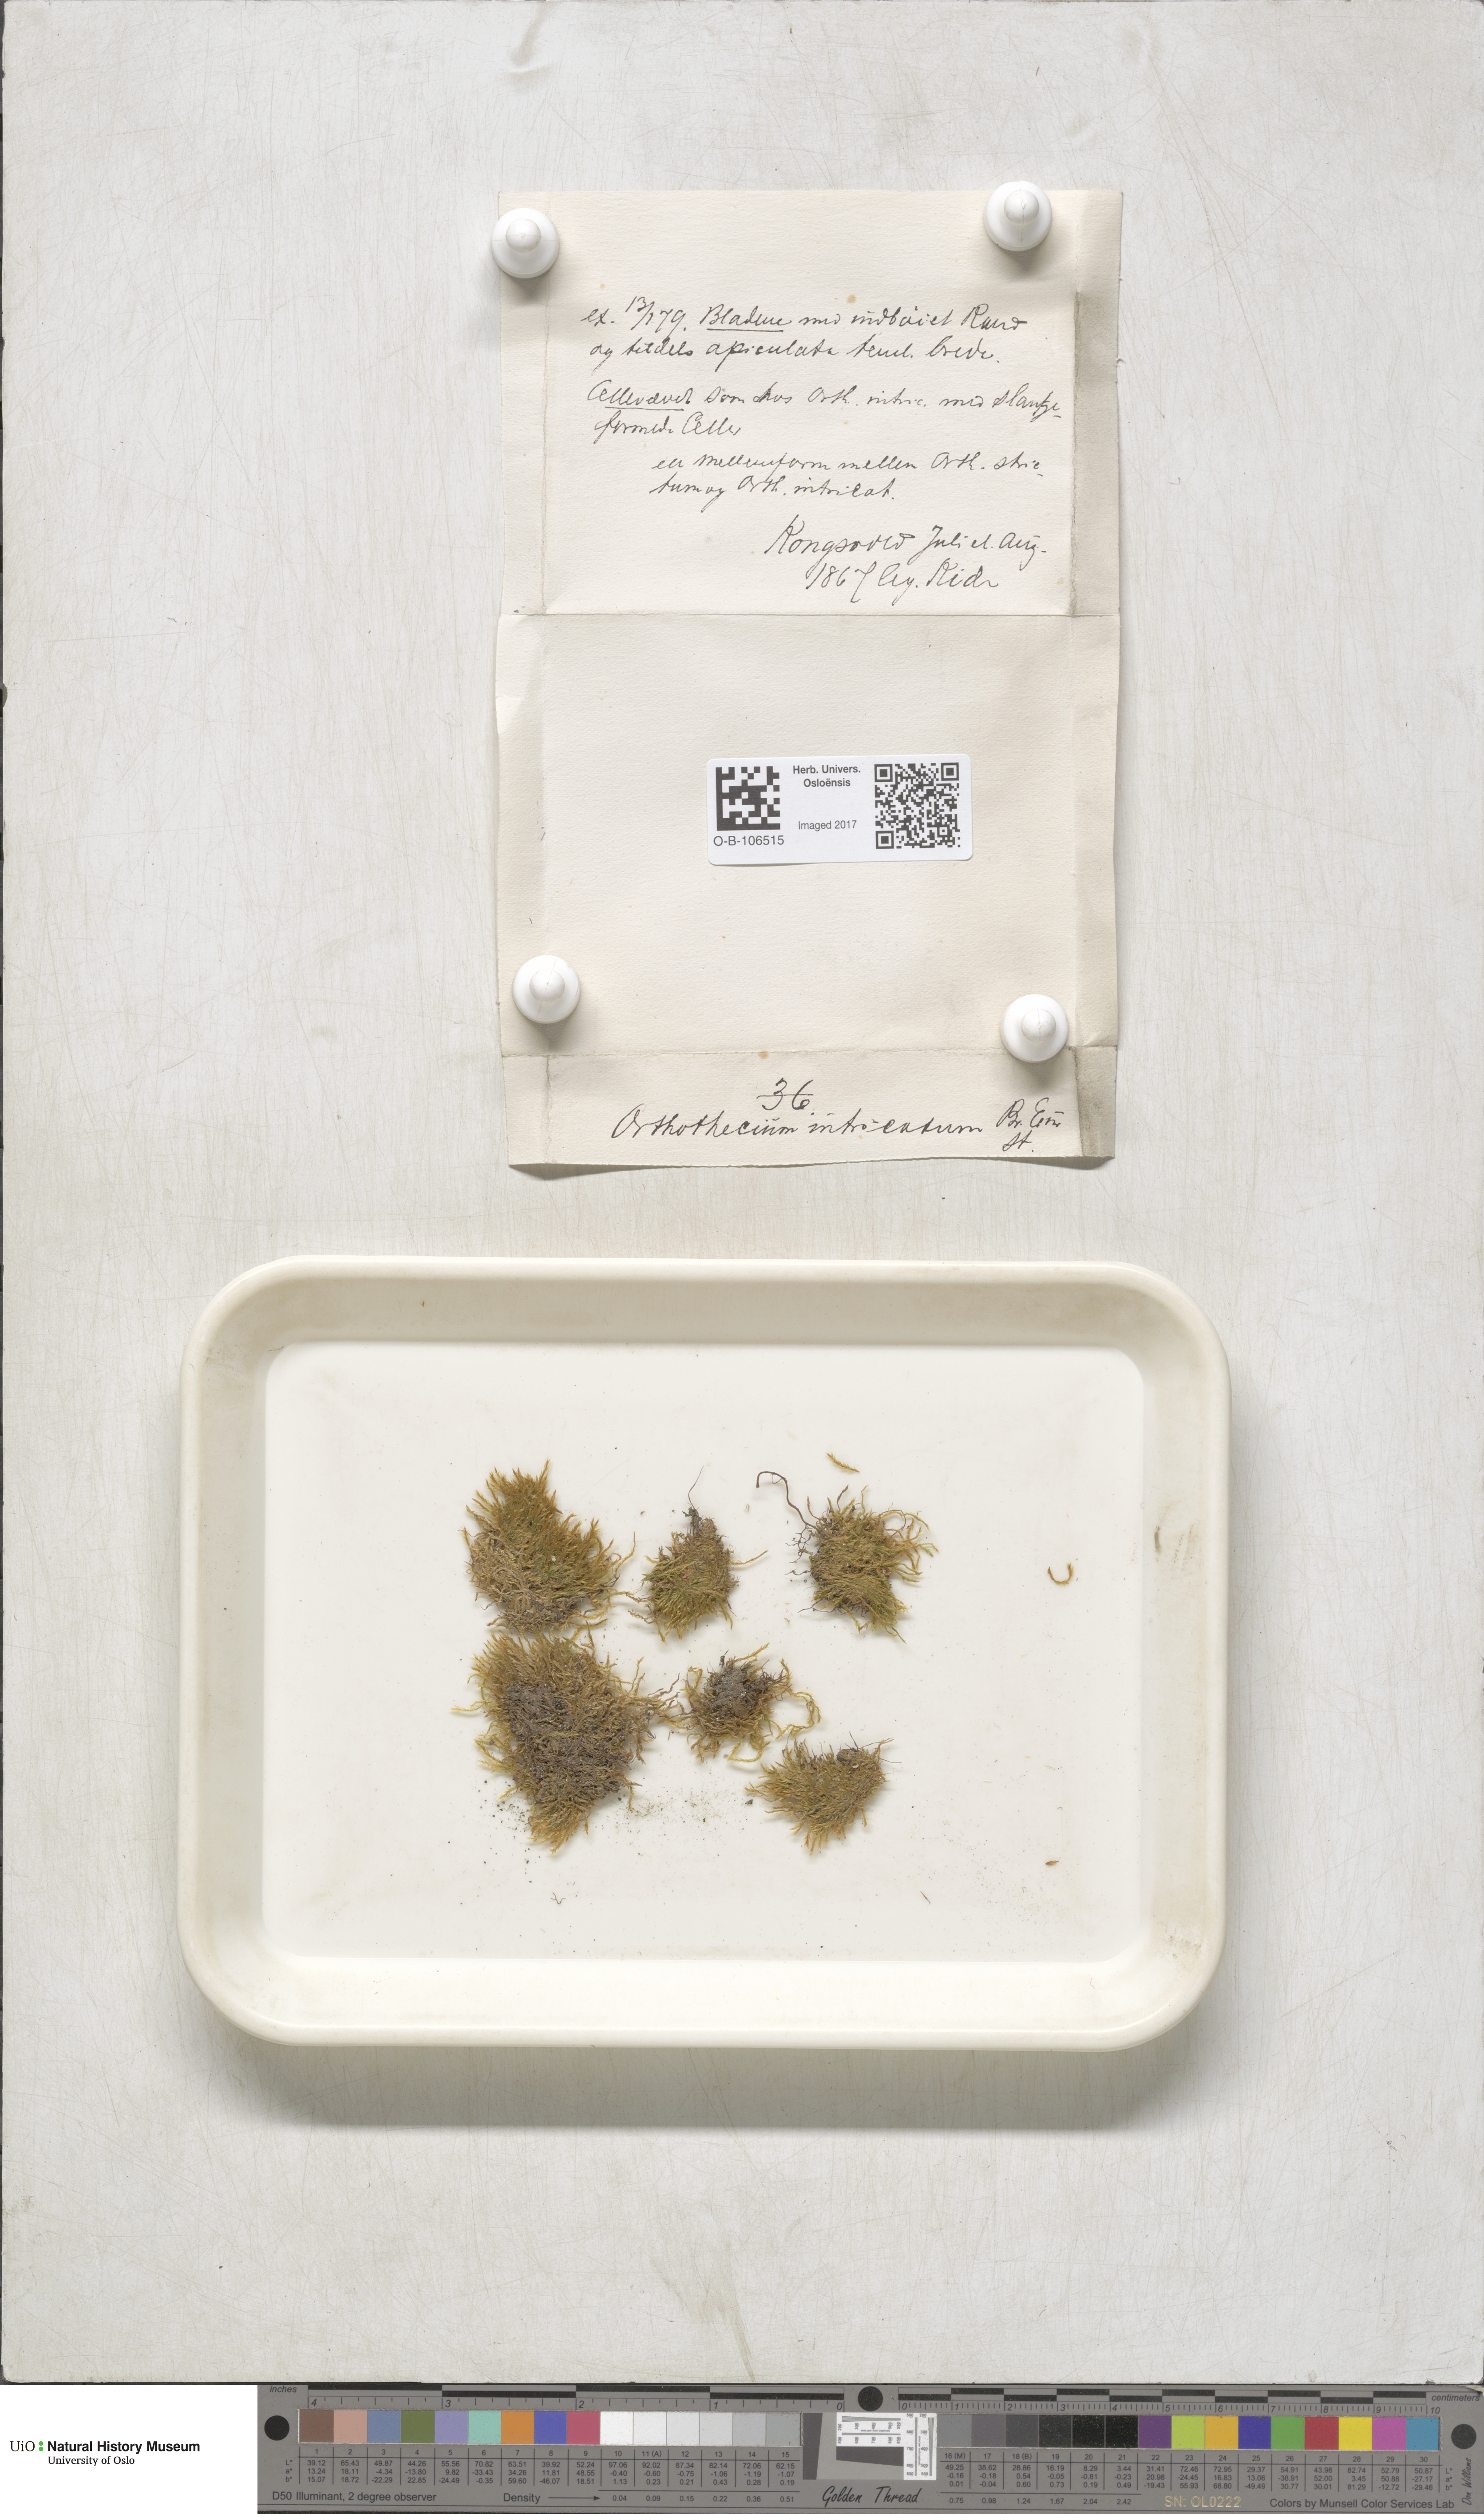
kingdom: Plantae
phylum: Bryophyta
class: Bryopsida
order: Hypnales
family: Plagiotheciaceae
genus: Orthothecium
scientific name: Orthothecium intricatum
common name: Fine-leaved erect-capsule moss
